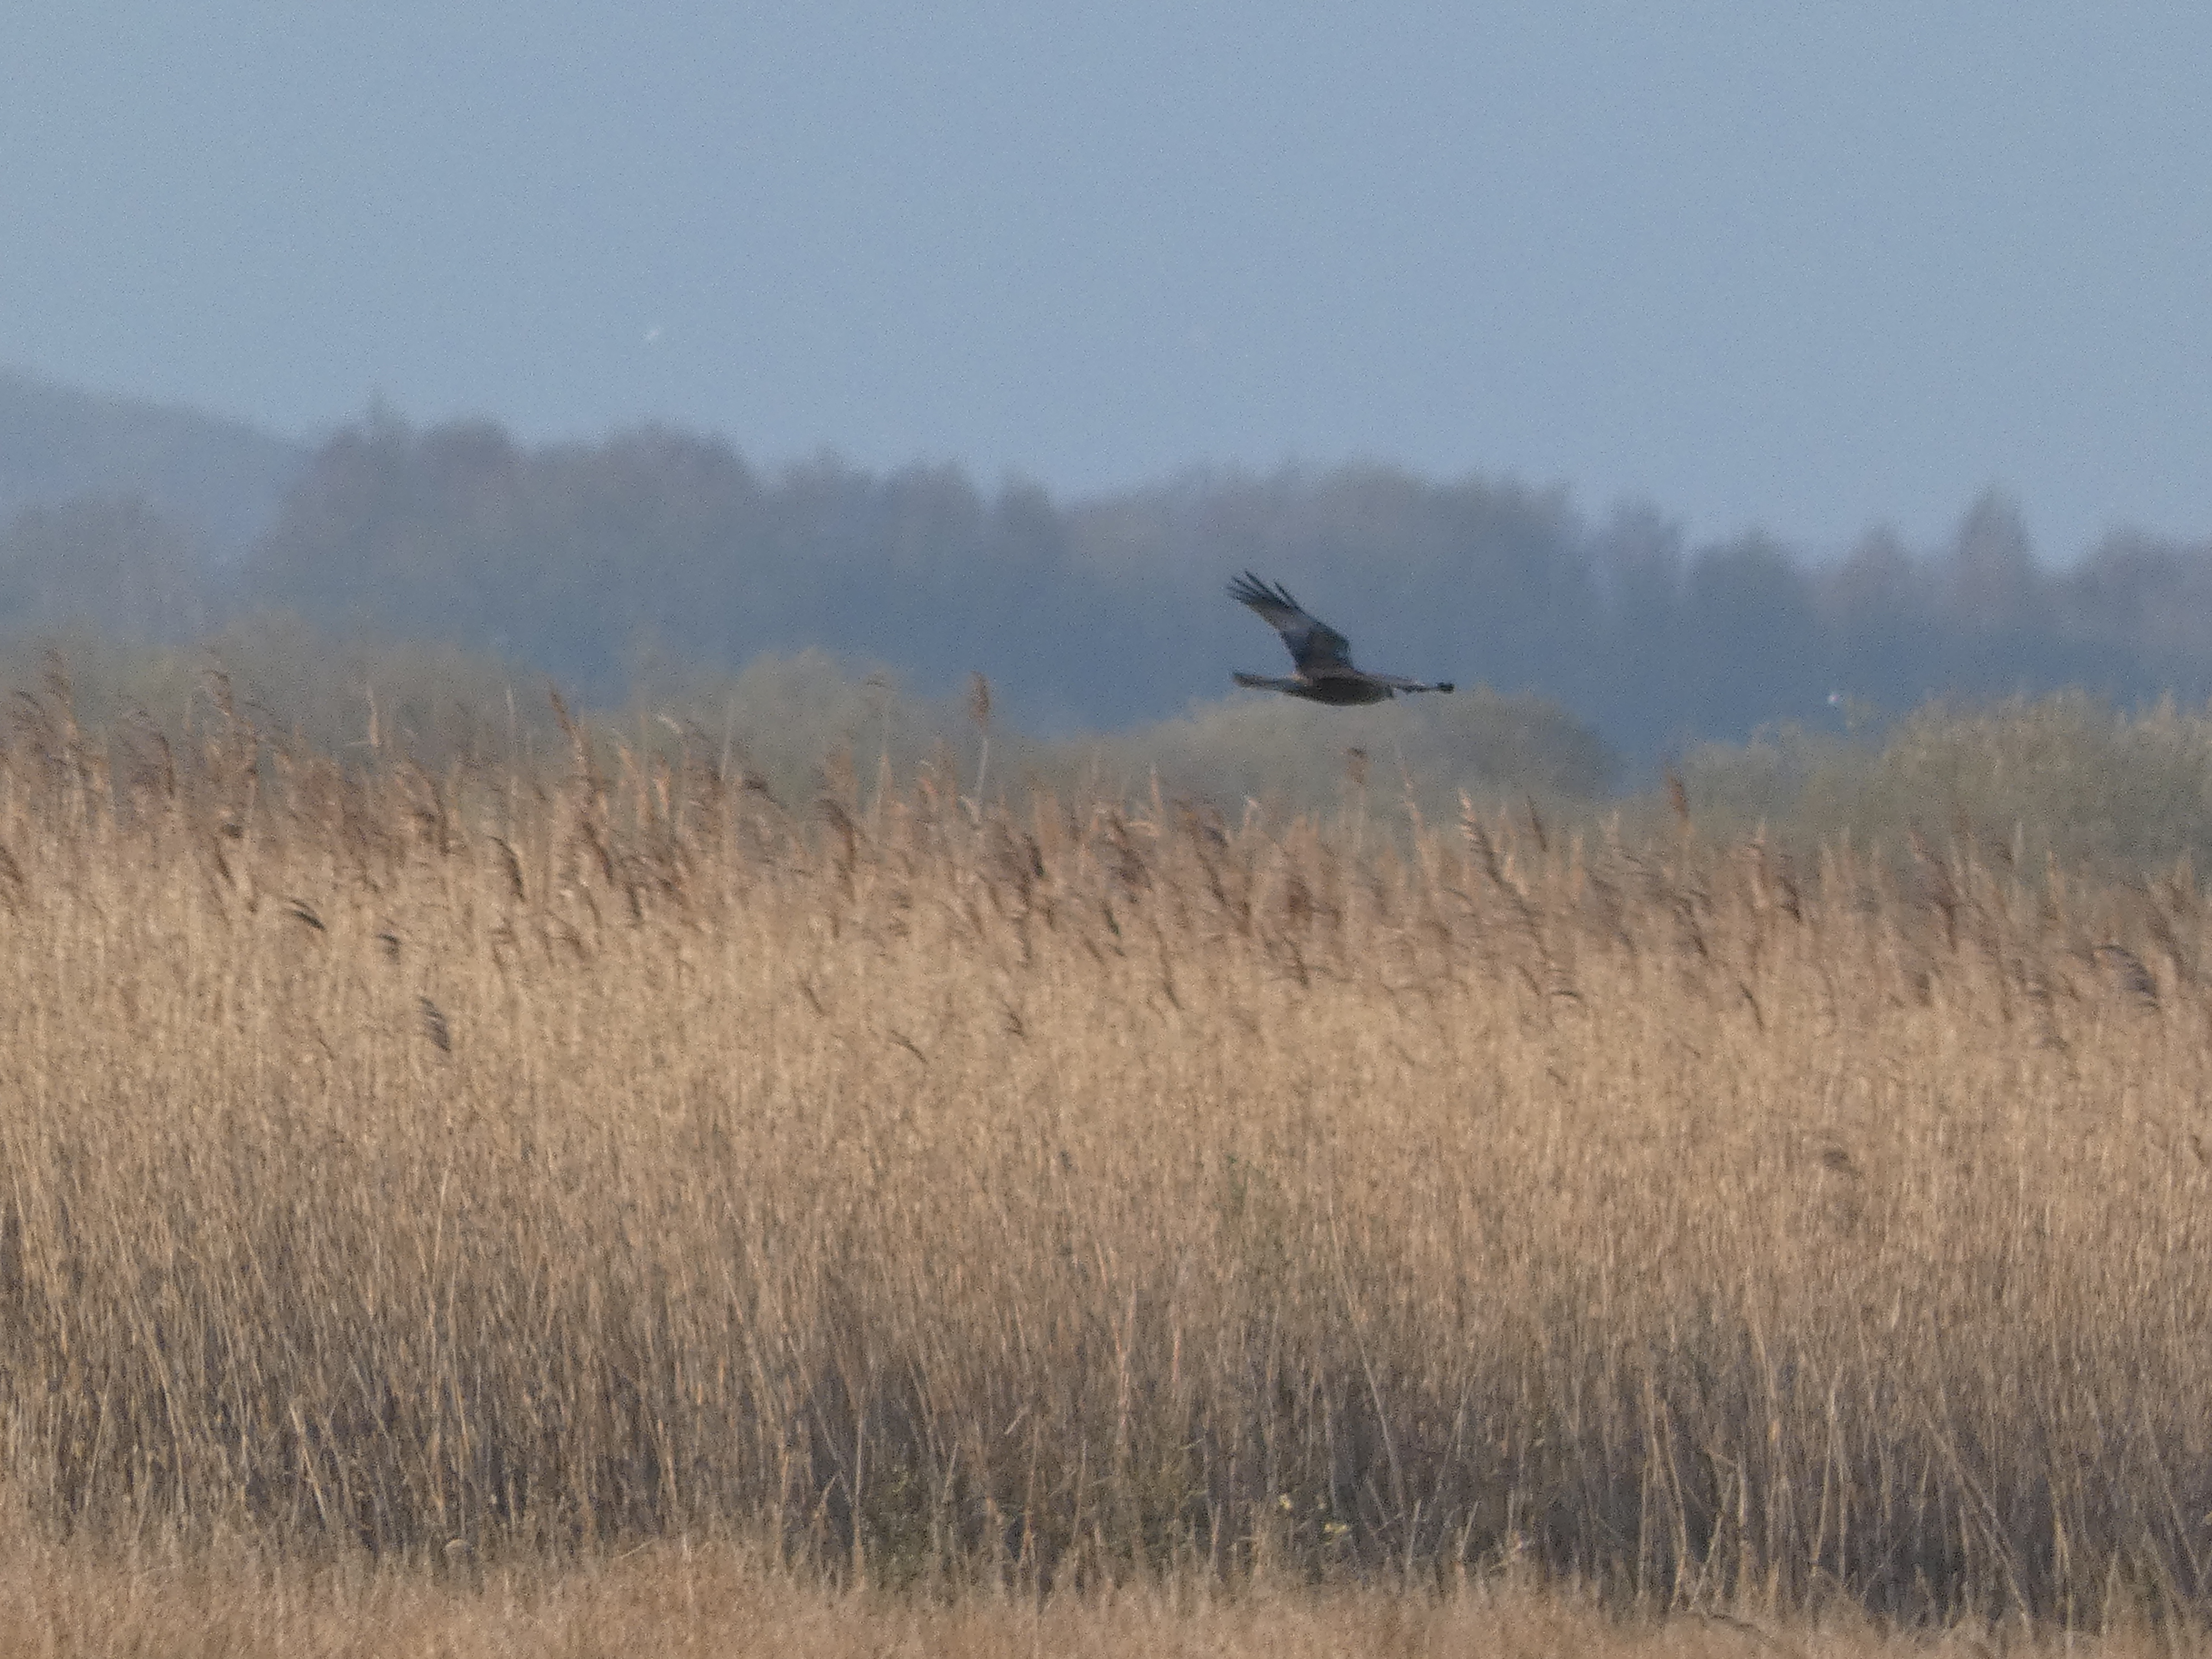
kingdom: Animalia
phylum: Chordata
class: Aves
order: Accipitriformes
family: Accipitridae
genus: Circus
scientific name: Circus aeruginosus
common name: Rørhøg
